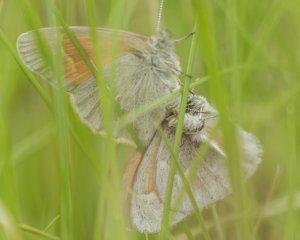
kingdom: Animalia
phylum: Arthropoda
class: Insecta
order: Lepidoptera
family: Nymphalidae
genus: Coenonympha
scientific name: Coenonympha tullia
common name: Large Heath
